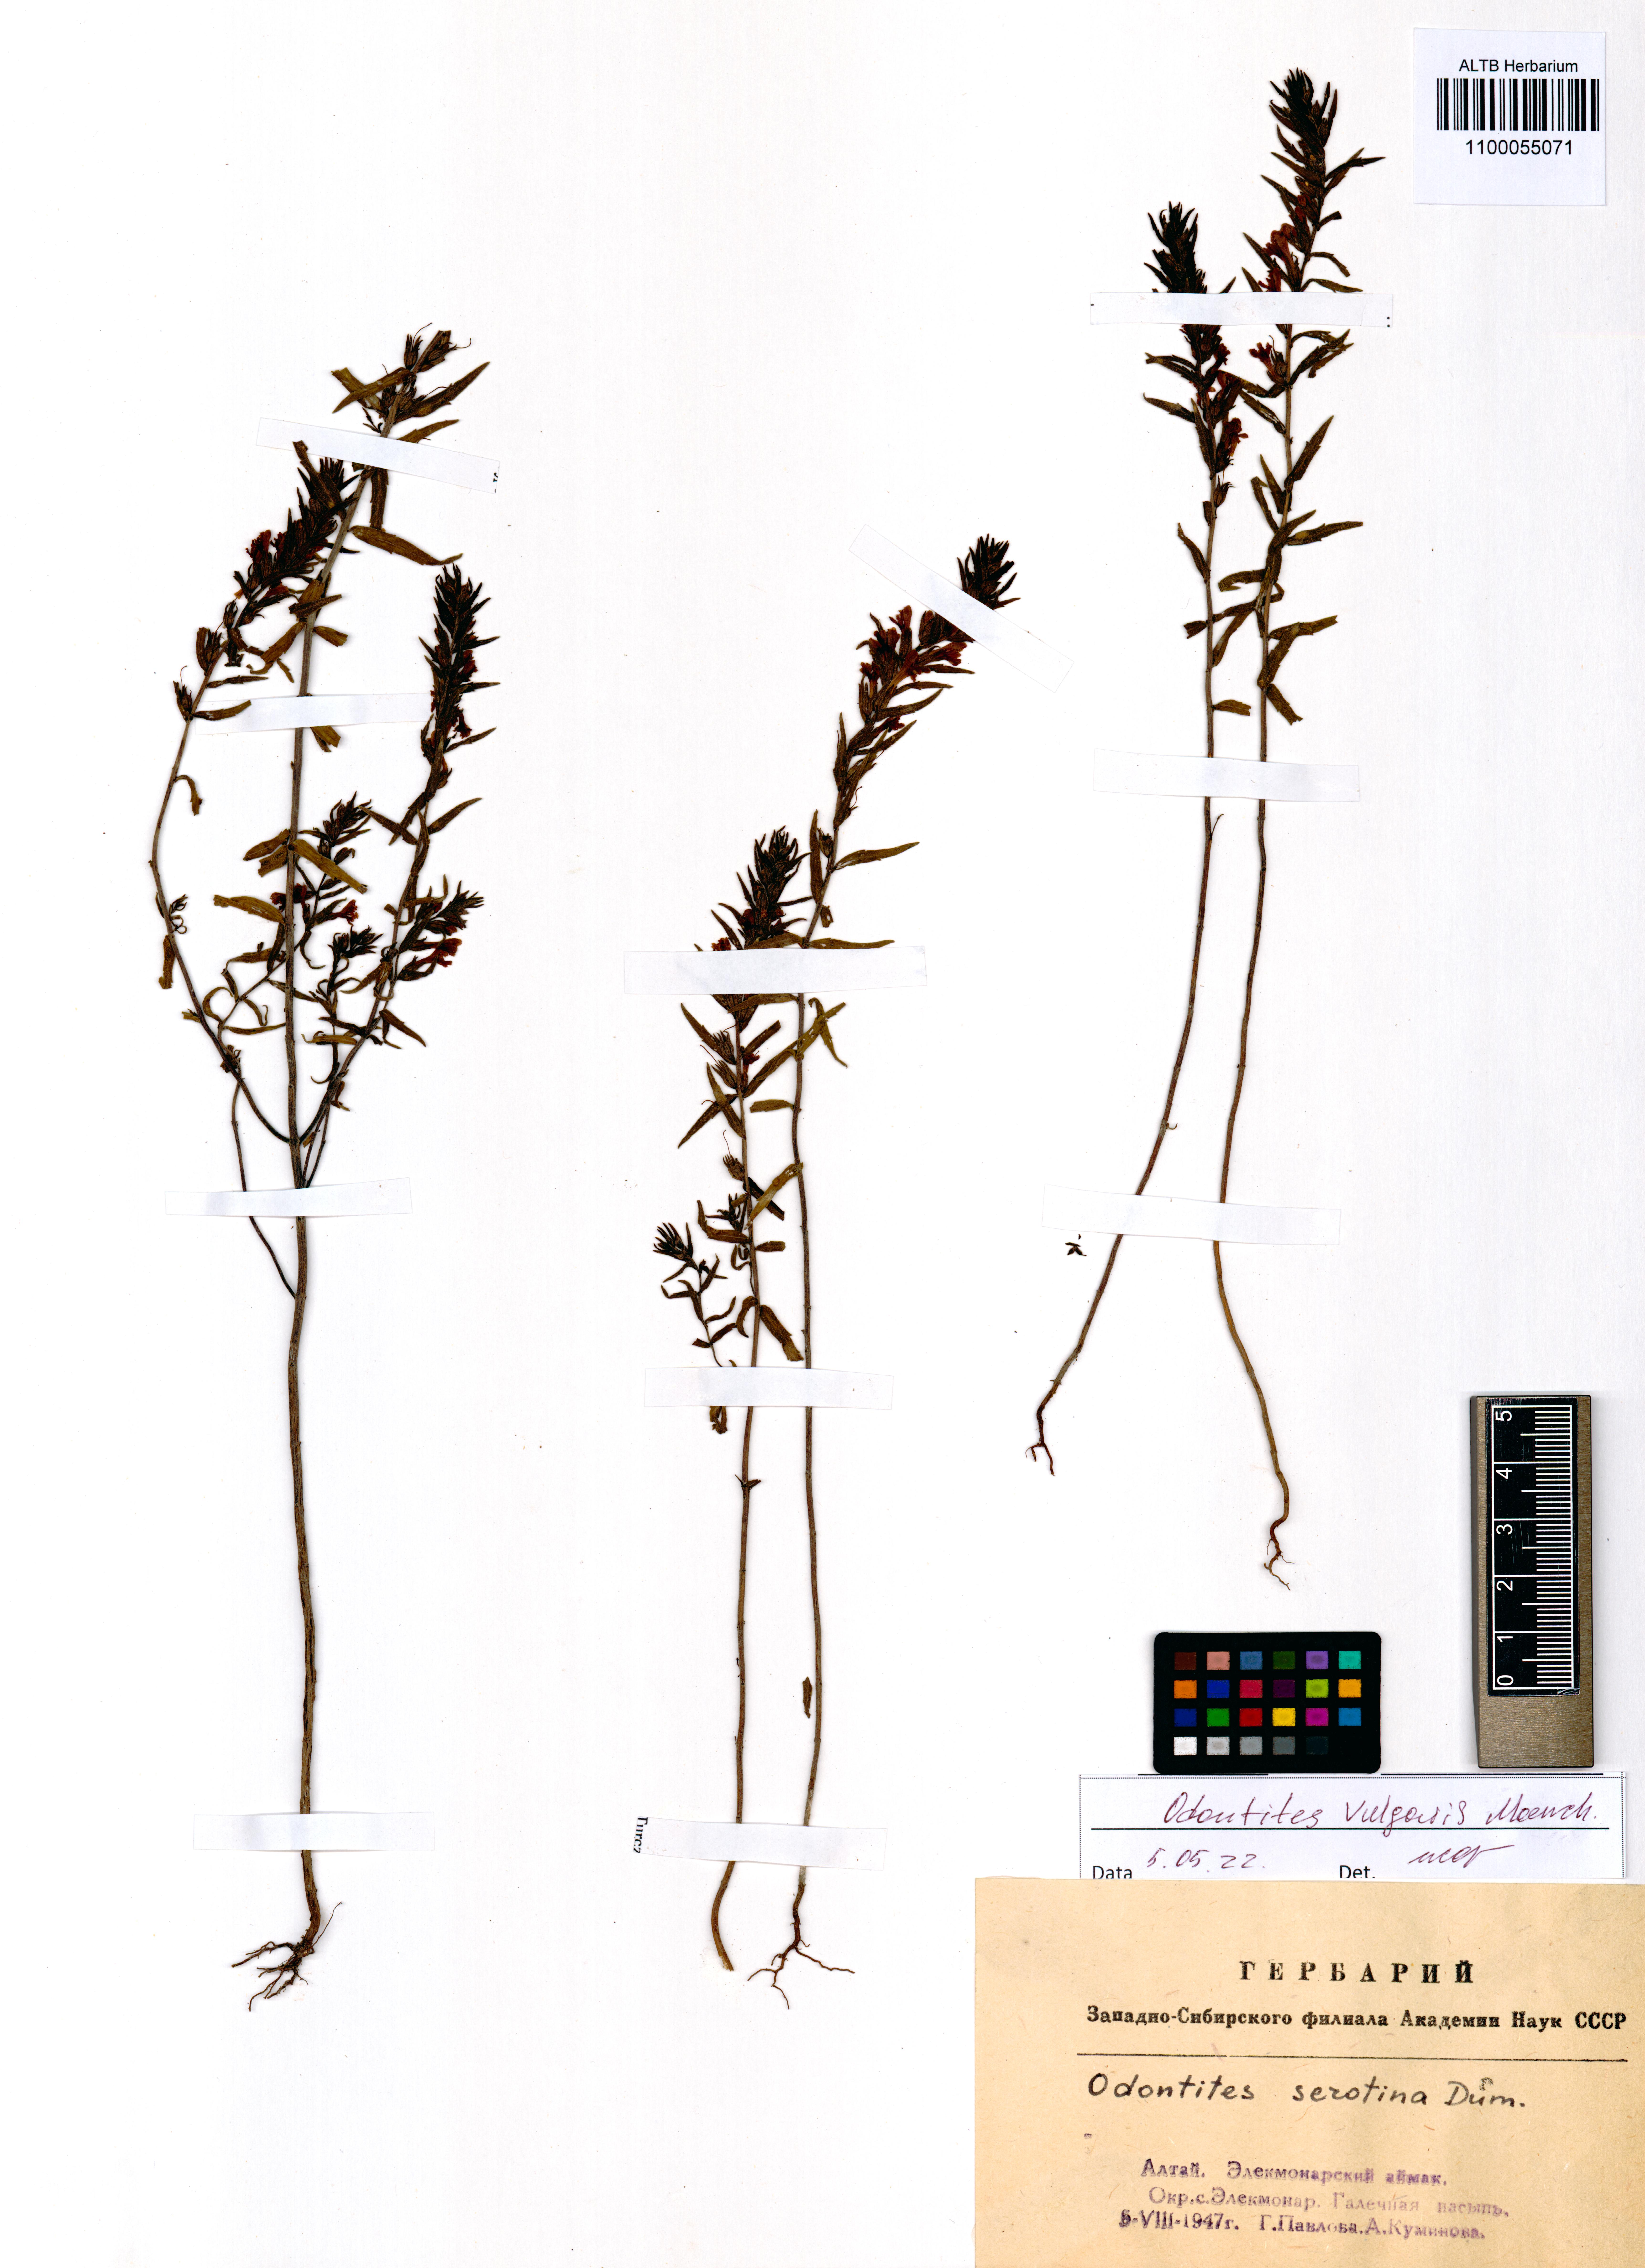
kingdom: Plantae
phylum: Tracheophyta
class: Magnoliopsida
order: Lamiales
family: Orobanchaceae
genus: Odontites
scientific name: Odontites vulgaris
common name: Broomrape
